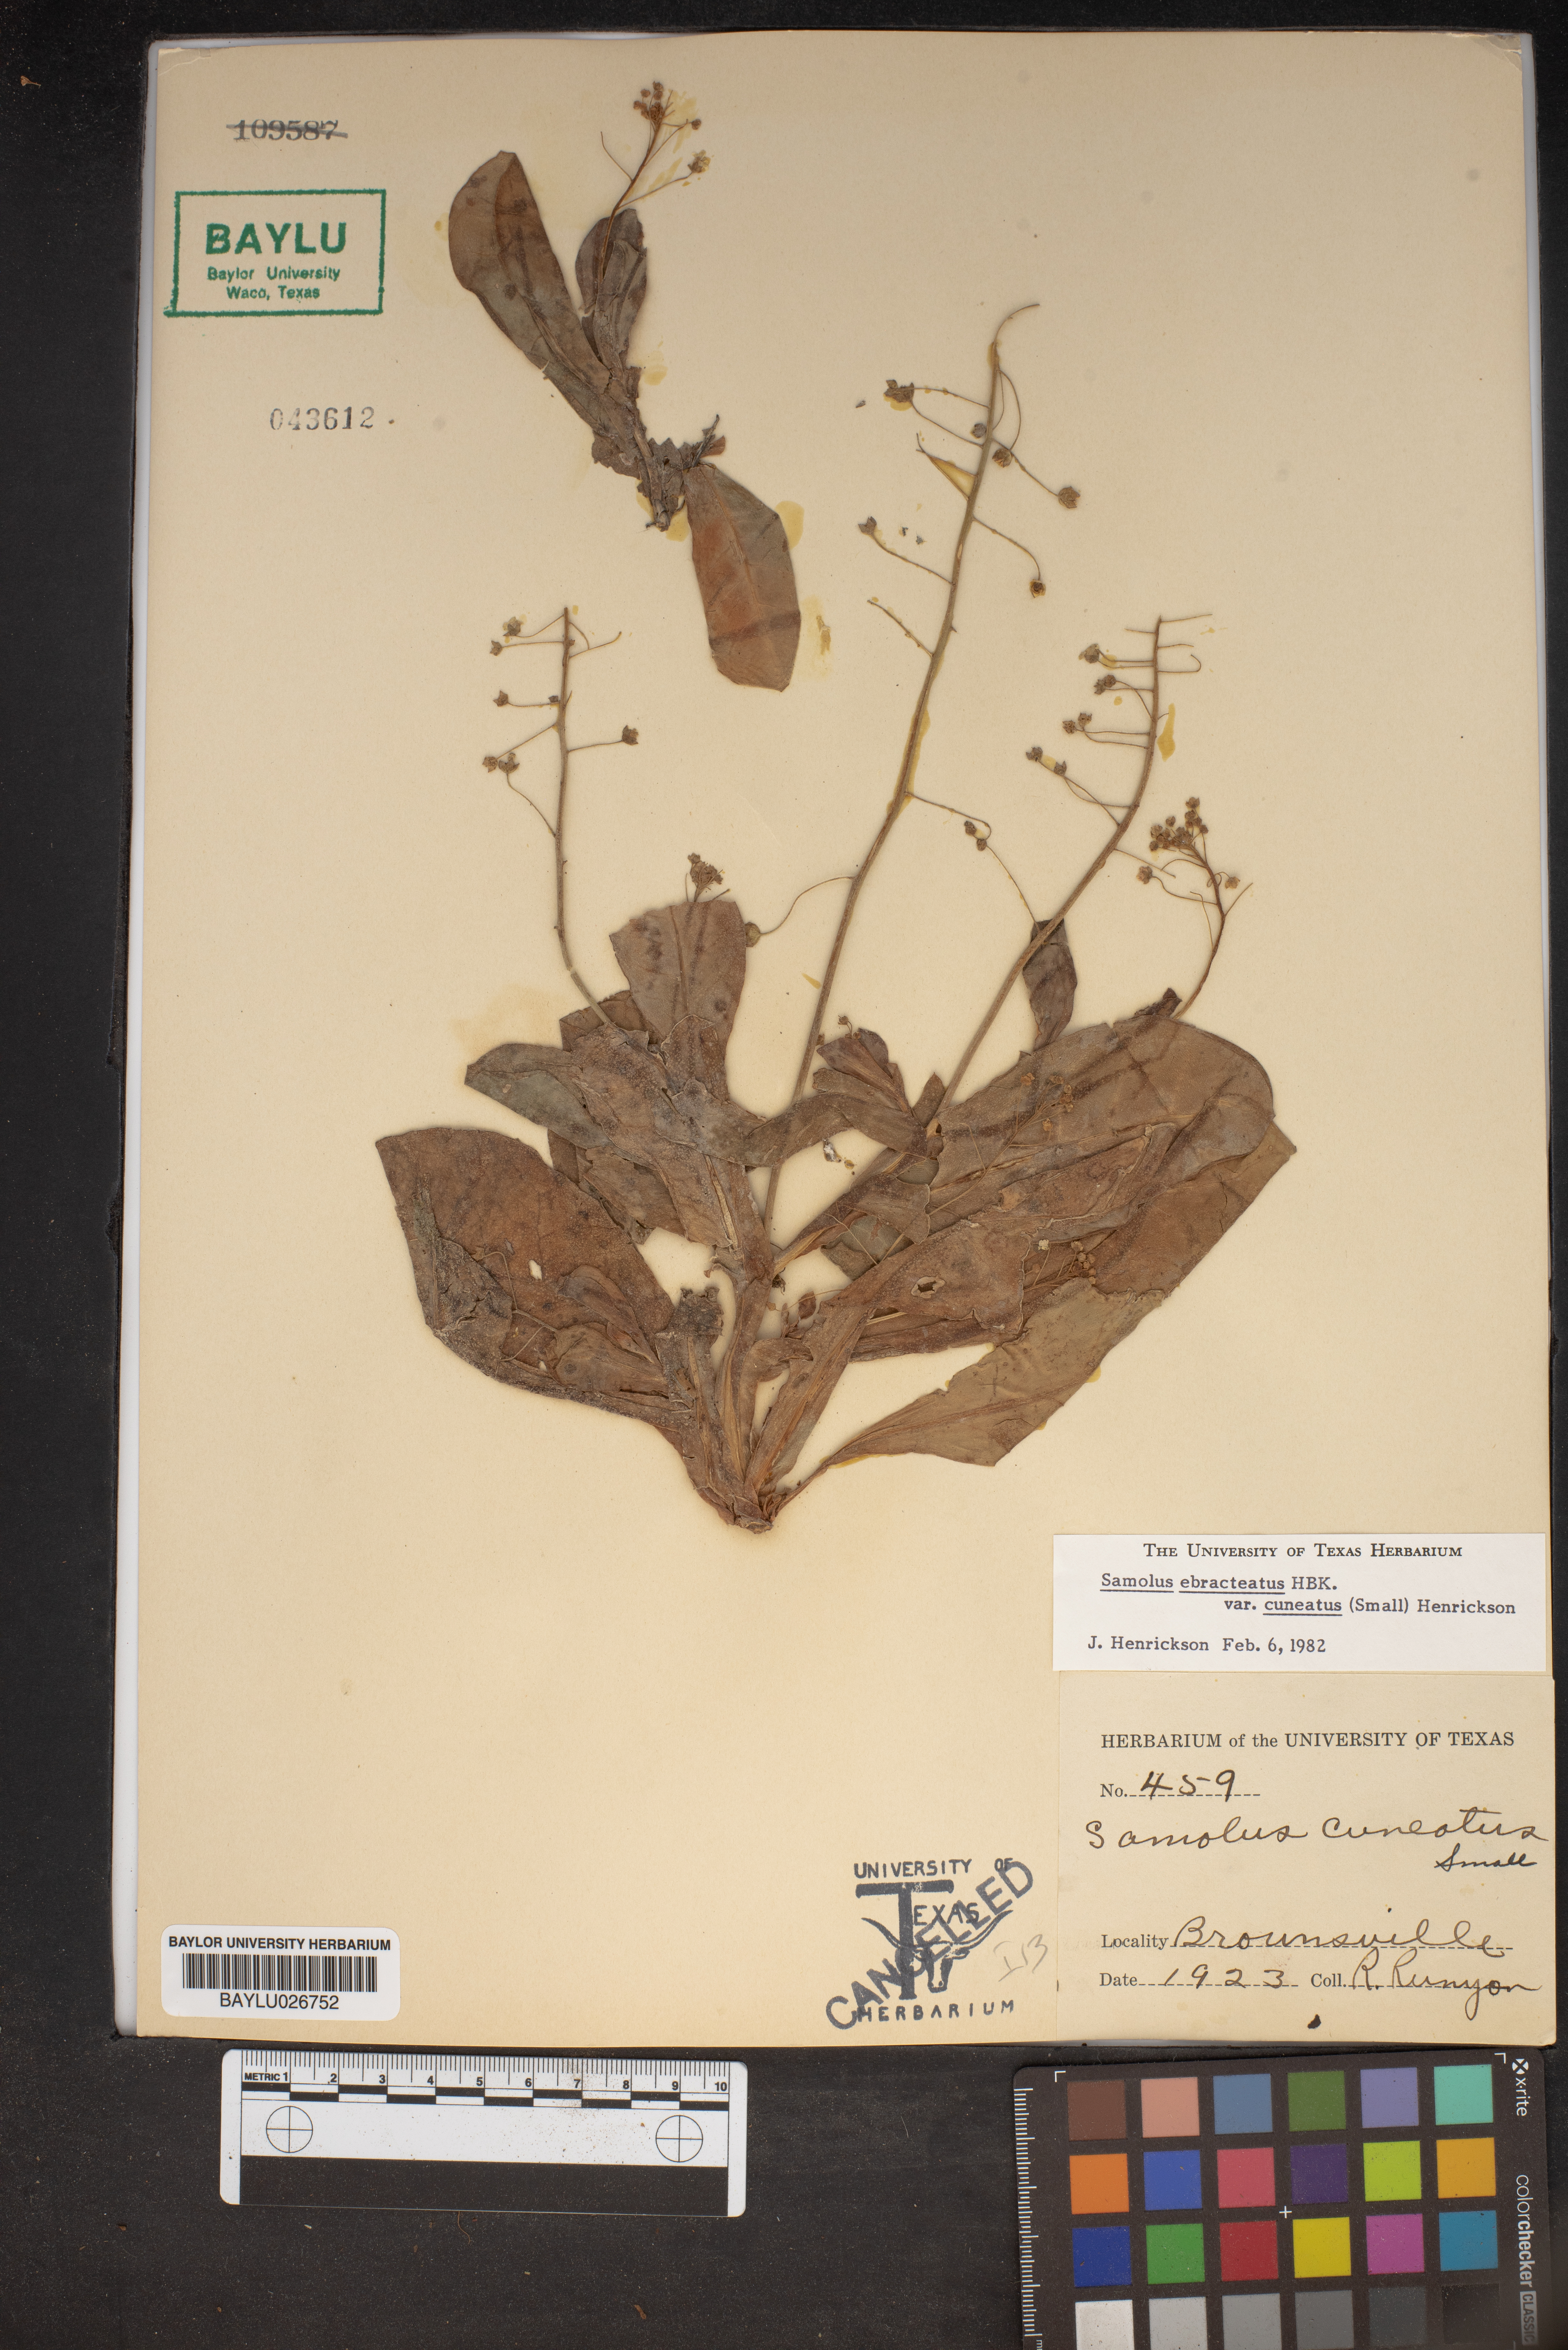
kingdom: Plantae
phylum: Tracheophyta
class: Magnoliopsida
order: Ericales
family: Primulaceae
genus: Samolus
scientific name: Samolus ebracteatus
